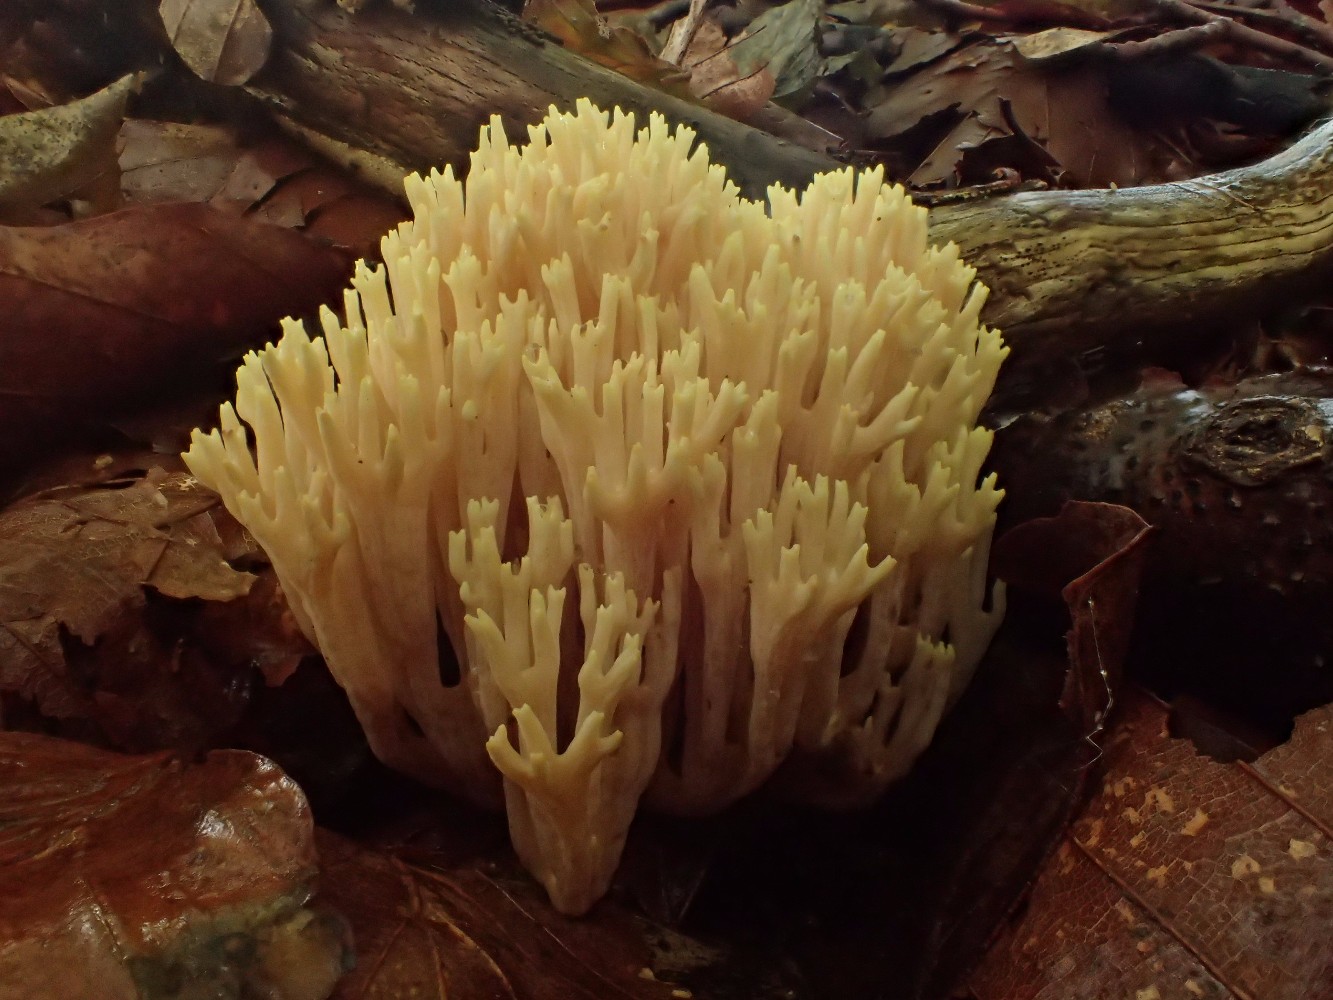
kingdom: Fungi
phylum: Basidiomycota
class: Agaricomycetes
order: Gomphales
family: Gomphaceae
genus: Ramaria
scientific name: Ramaria stricta
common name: rank koralsvamp
